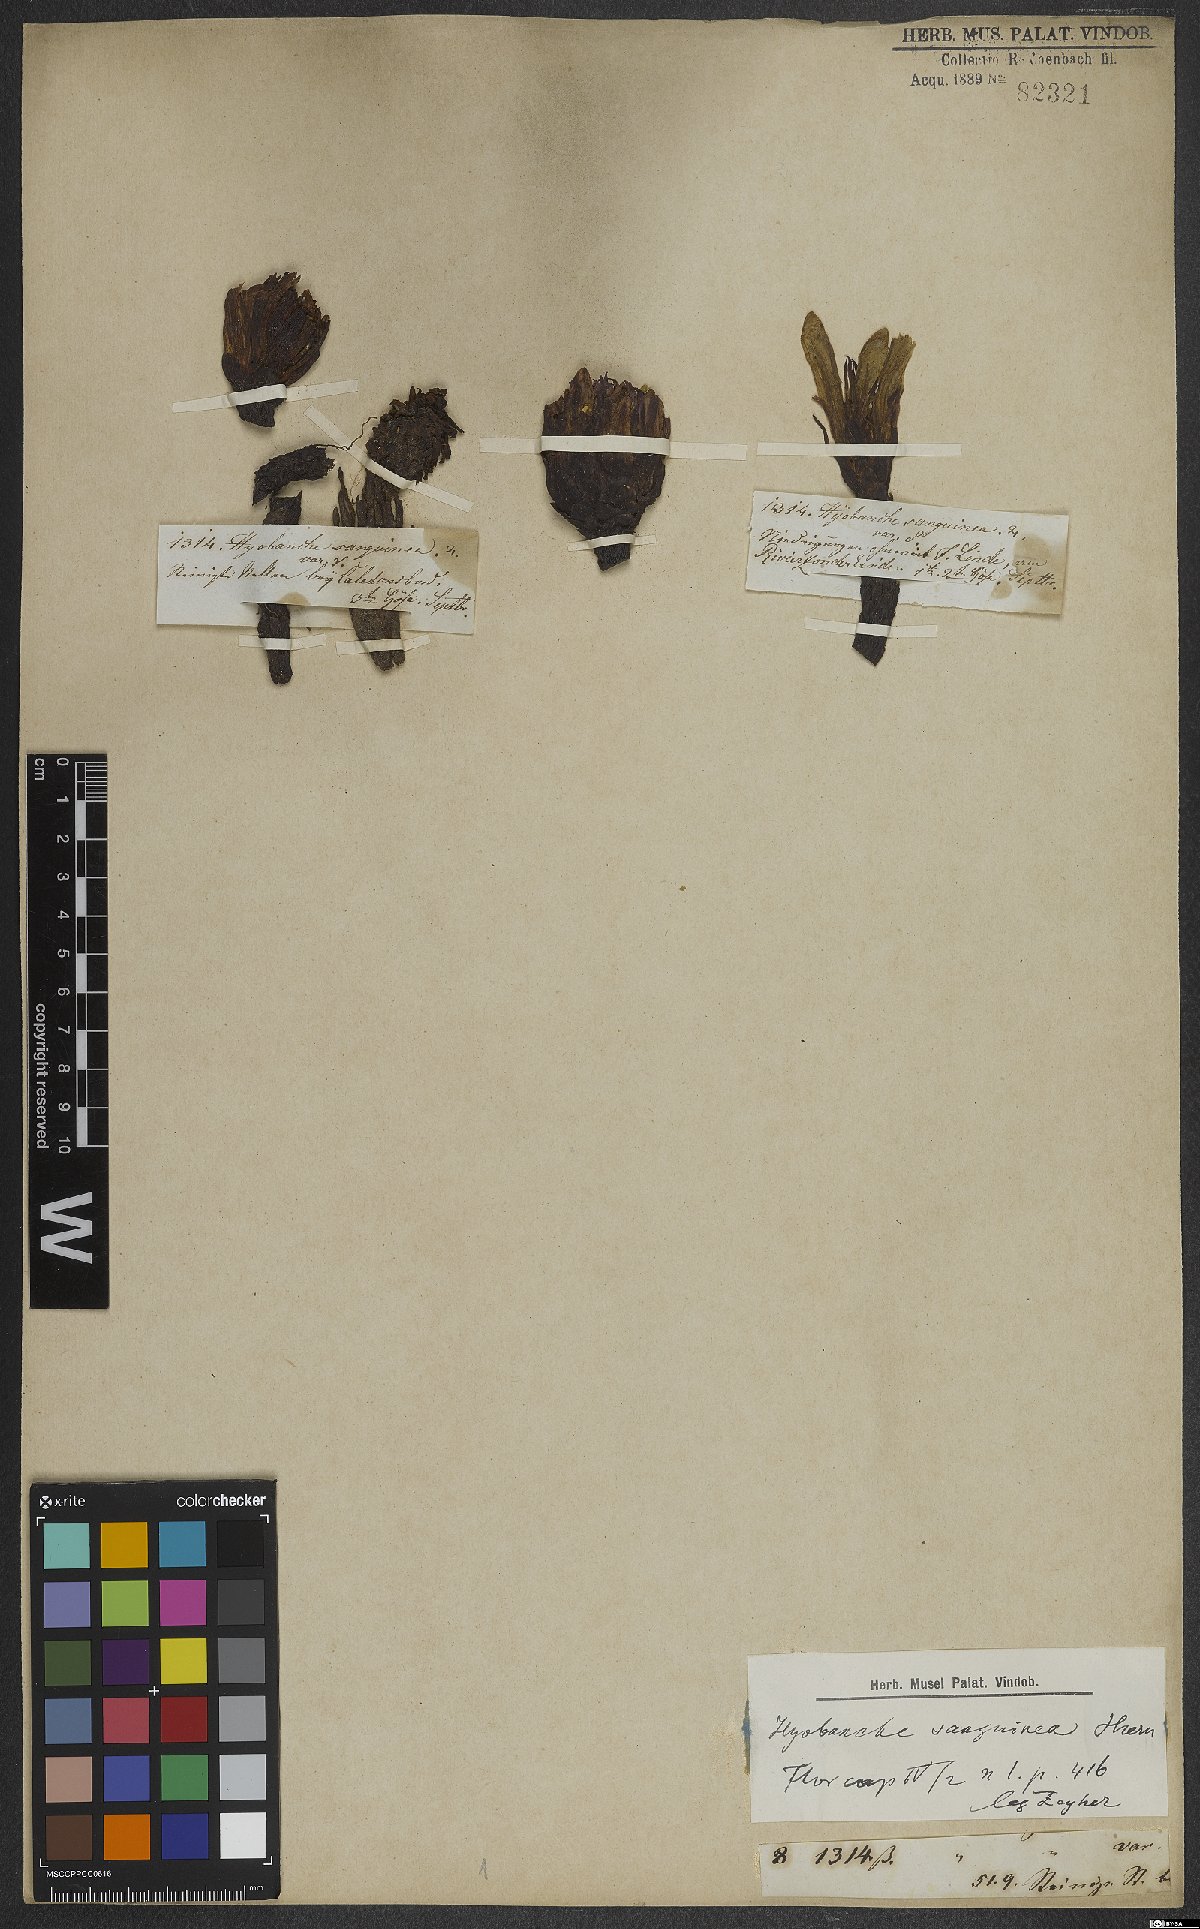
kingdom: Plantae
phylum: Tracheophyta
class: Magnoliopsida
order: Lamiales
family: Orobanchaceae
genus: Hyobanche
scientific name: Hyobanche sanguinea
